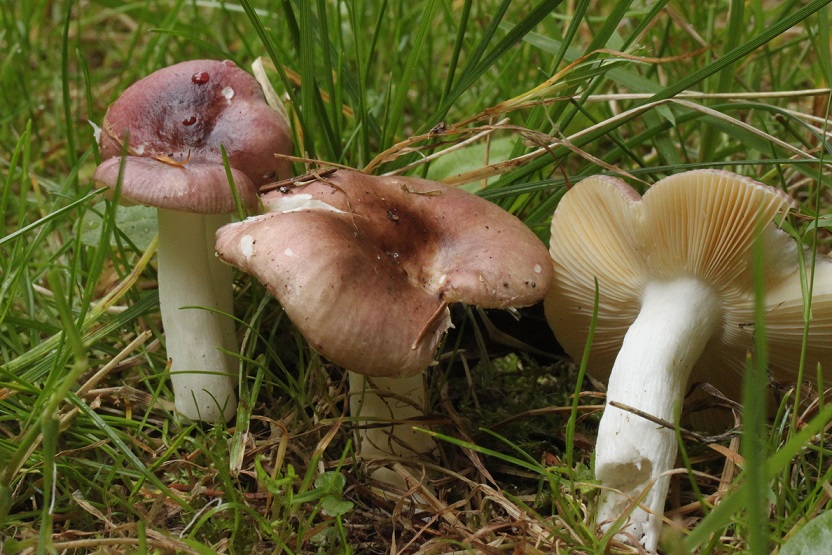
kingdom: Fungi
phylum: Basidiomycota
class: Agaricomycetes
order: Russulales
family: Russulaceae
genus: Russula
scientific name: Russula nauseosa
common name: spinkel skørhat
